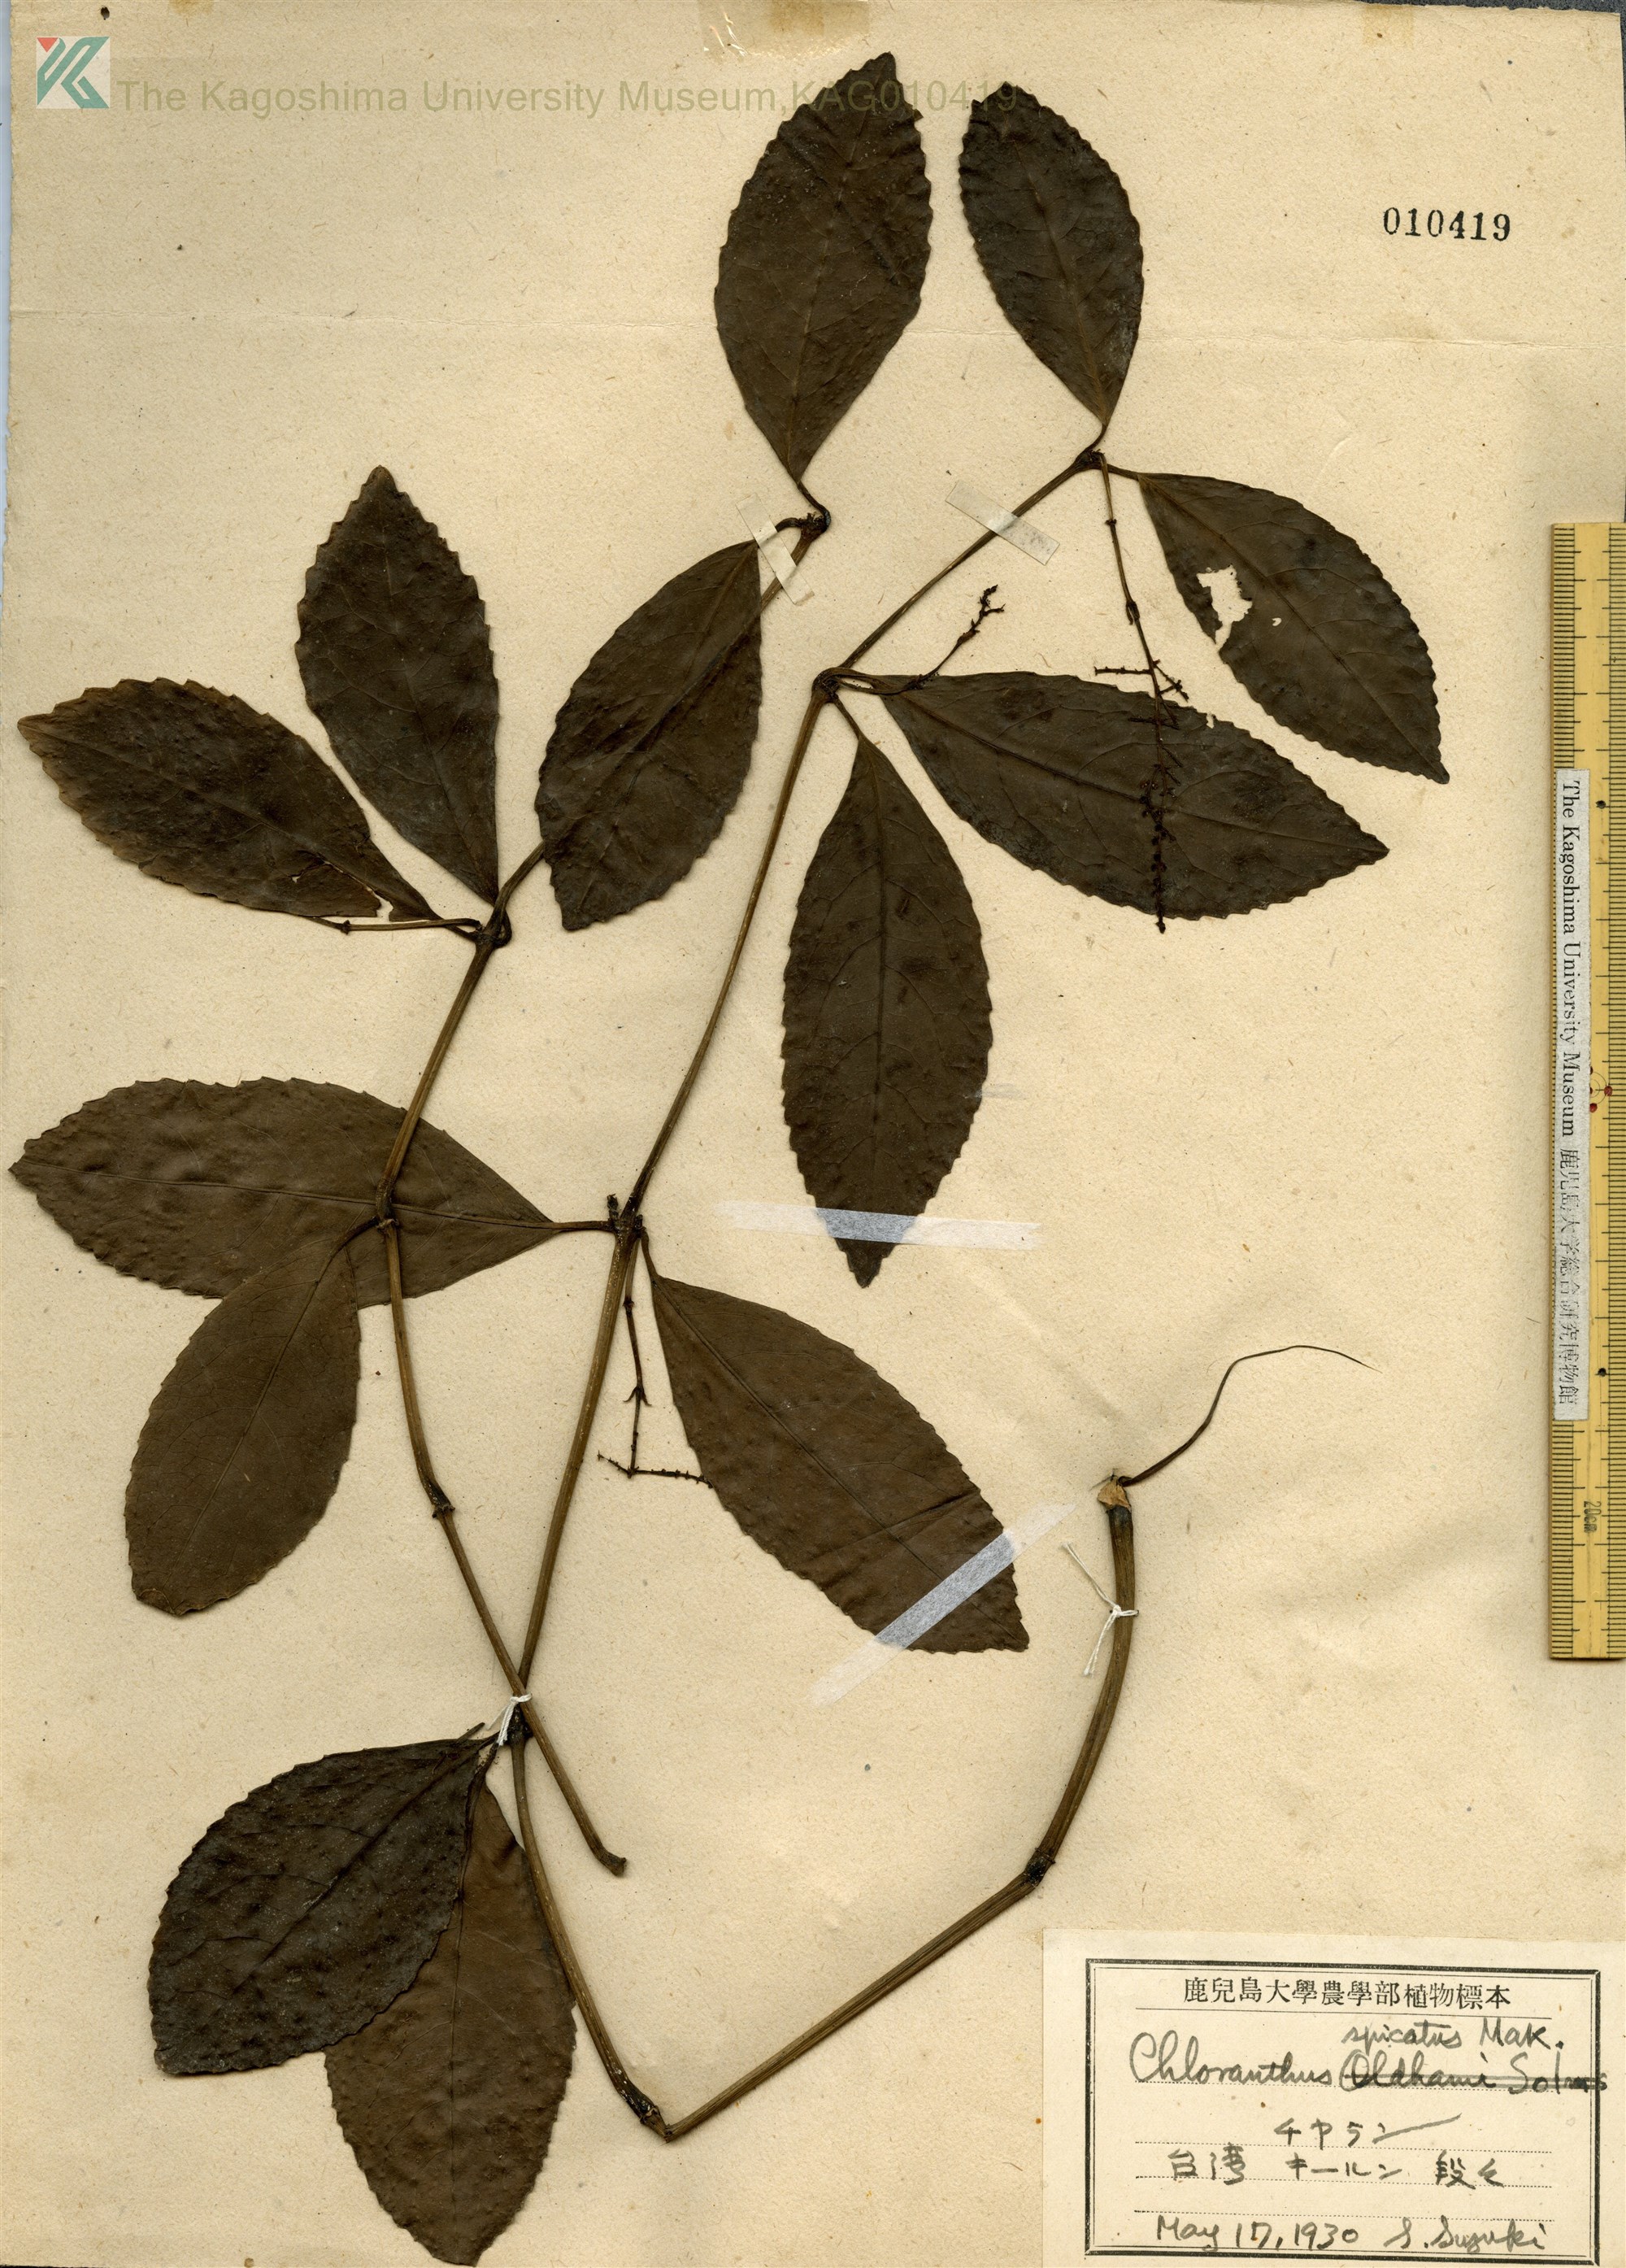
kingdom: Plantae
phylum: Tracheophyta
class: Magnoliopsida
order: Chloranthales
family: Chloranthaceae
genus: Chloranthus
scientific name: Chloranthus spicatus
